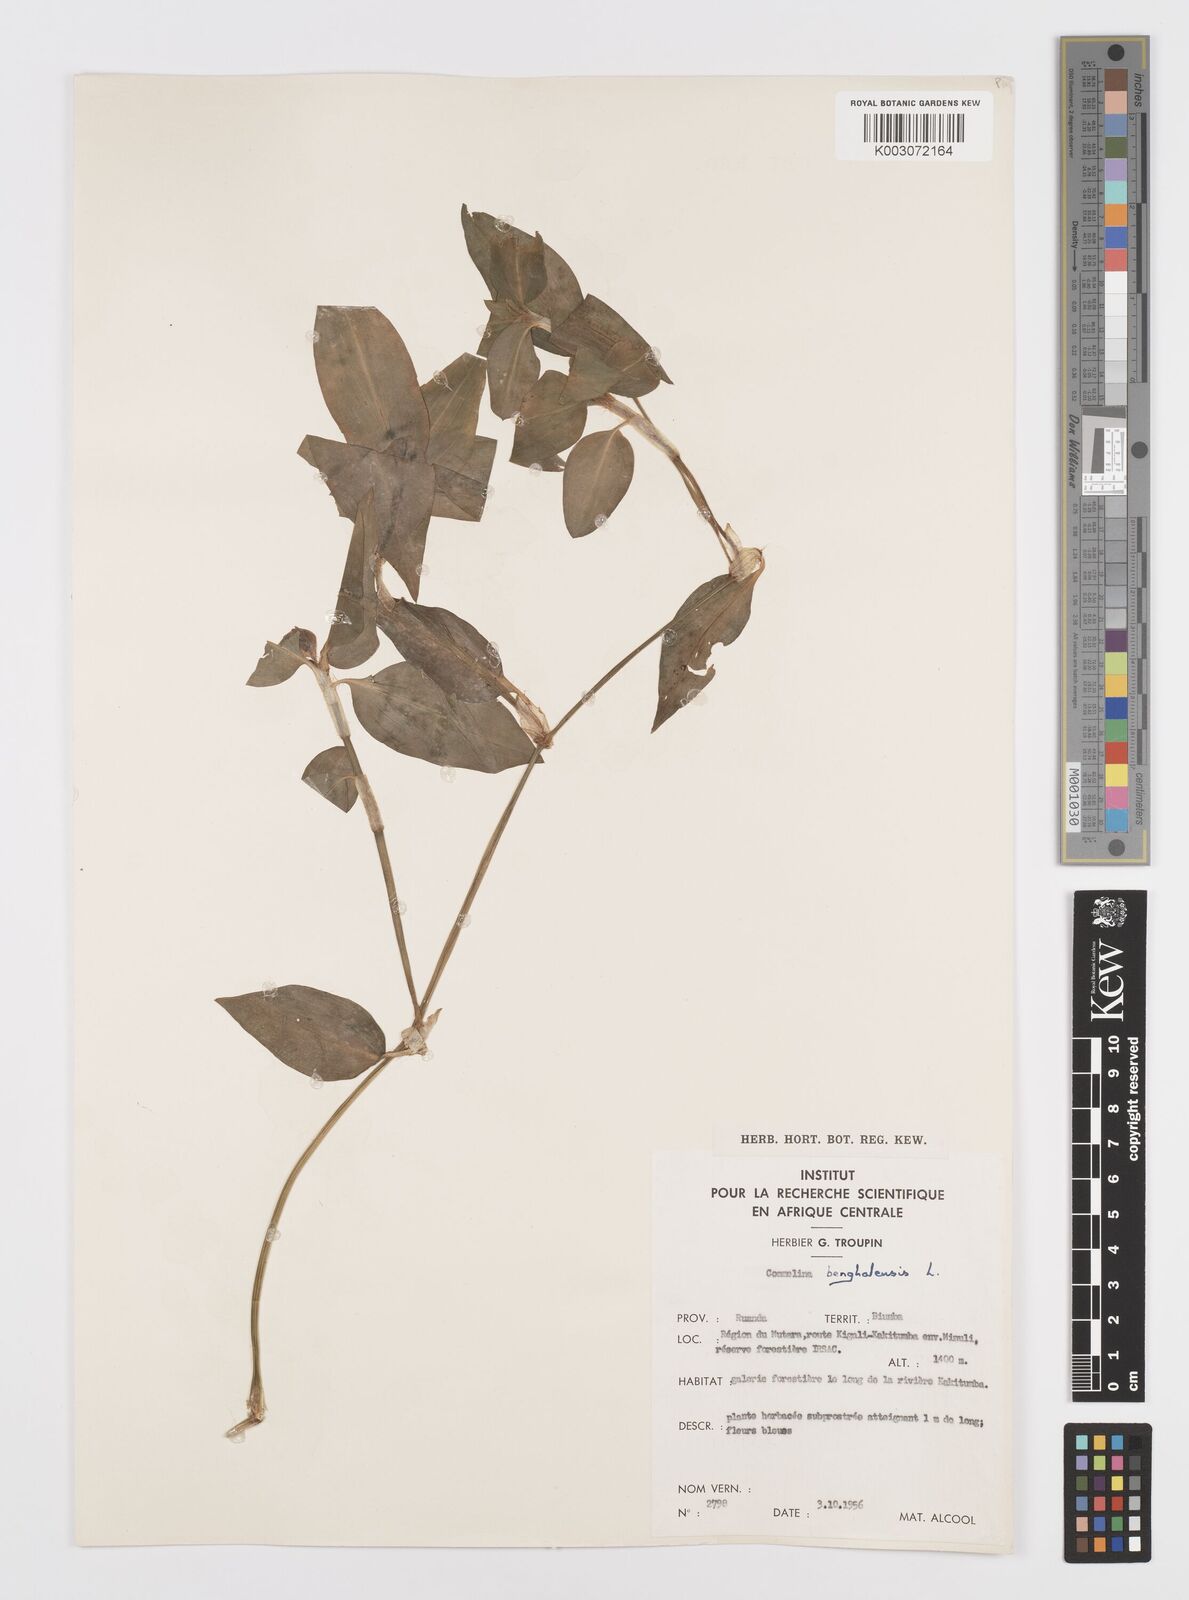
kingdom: Plantae
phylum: Tracheophyta
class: Liliopsida
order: Commelinales
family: Commelinaceae
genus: Commelina
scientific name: Commelina benghalensis
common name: Jio
